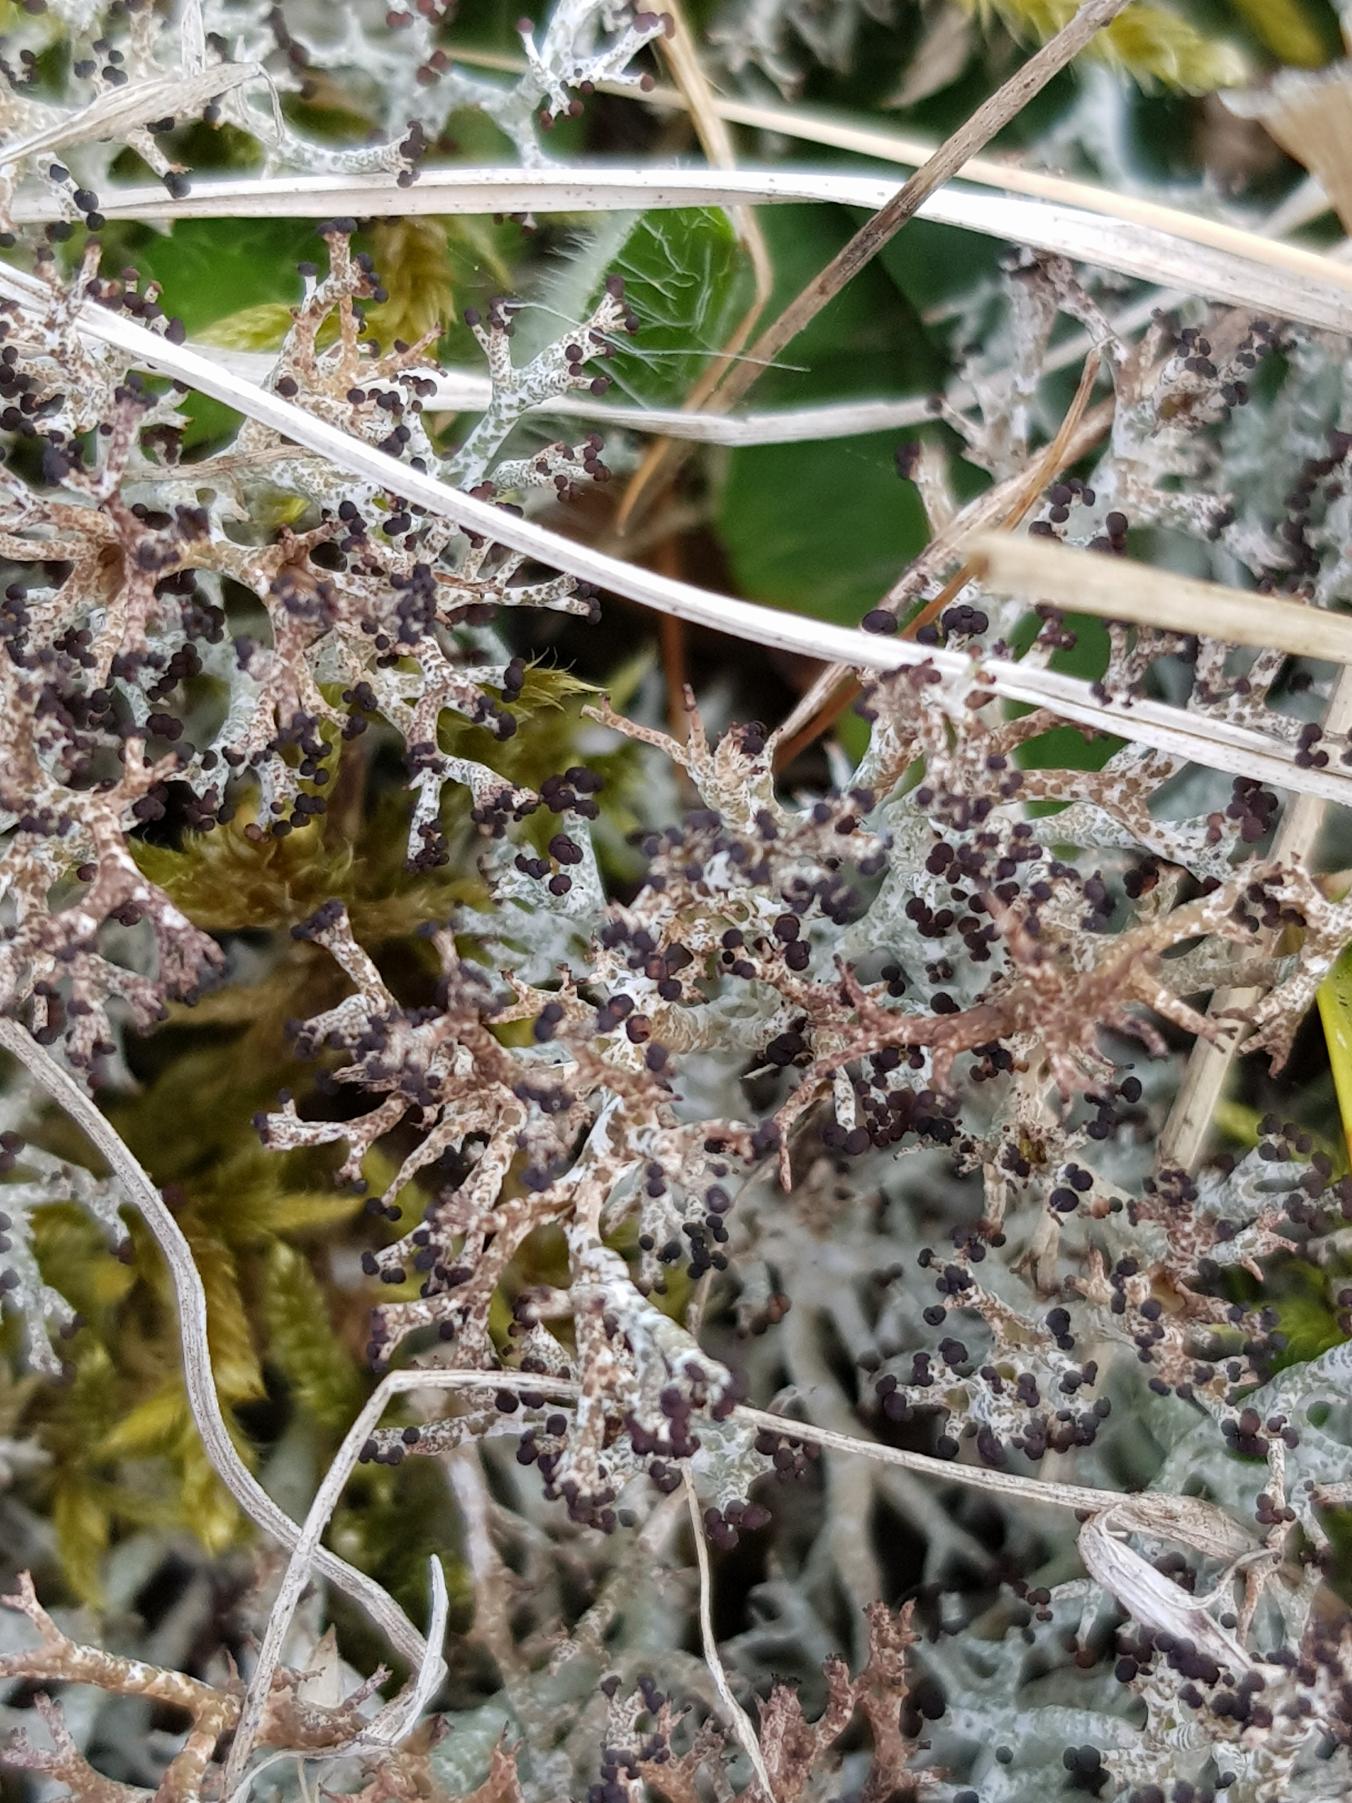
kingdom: Fungi
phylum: Ascomycota
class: Lecanoromycetes
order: Lecanorales
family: Cladoniaceae
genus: Cladonia
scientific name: Cladonia rangiformis
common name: Spættet bægerlav
